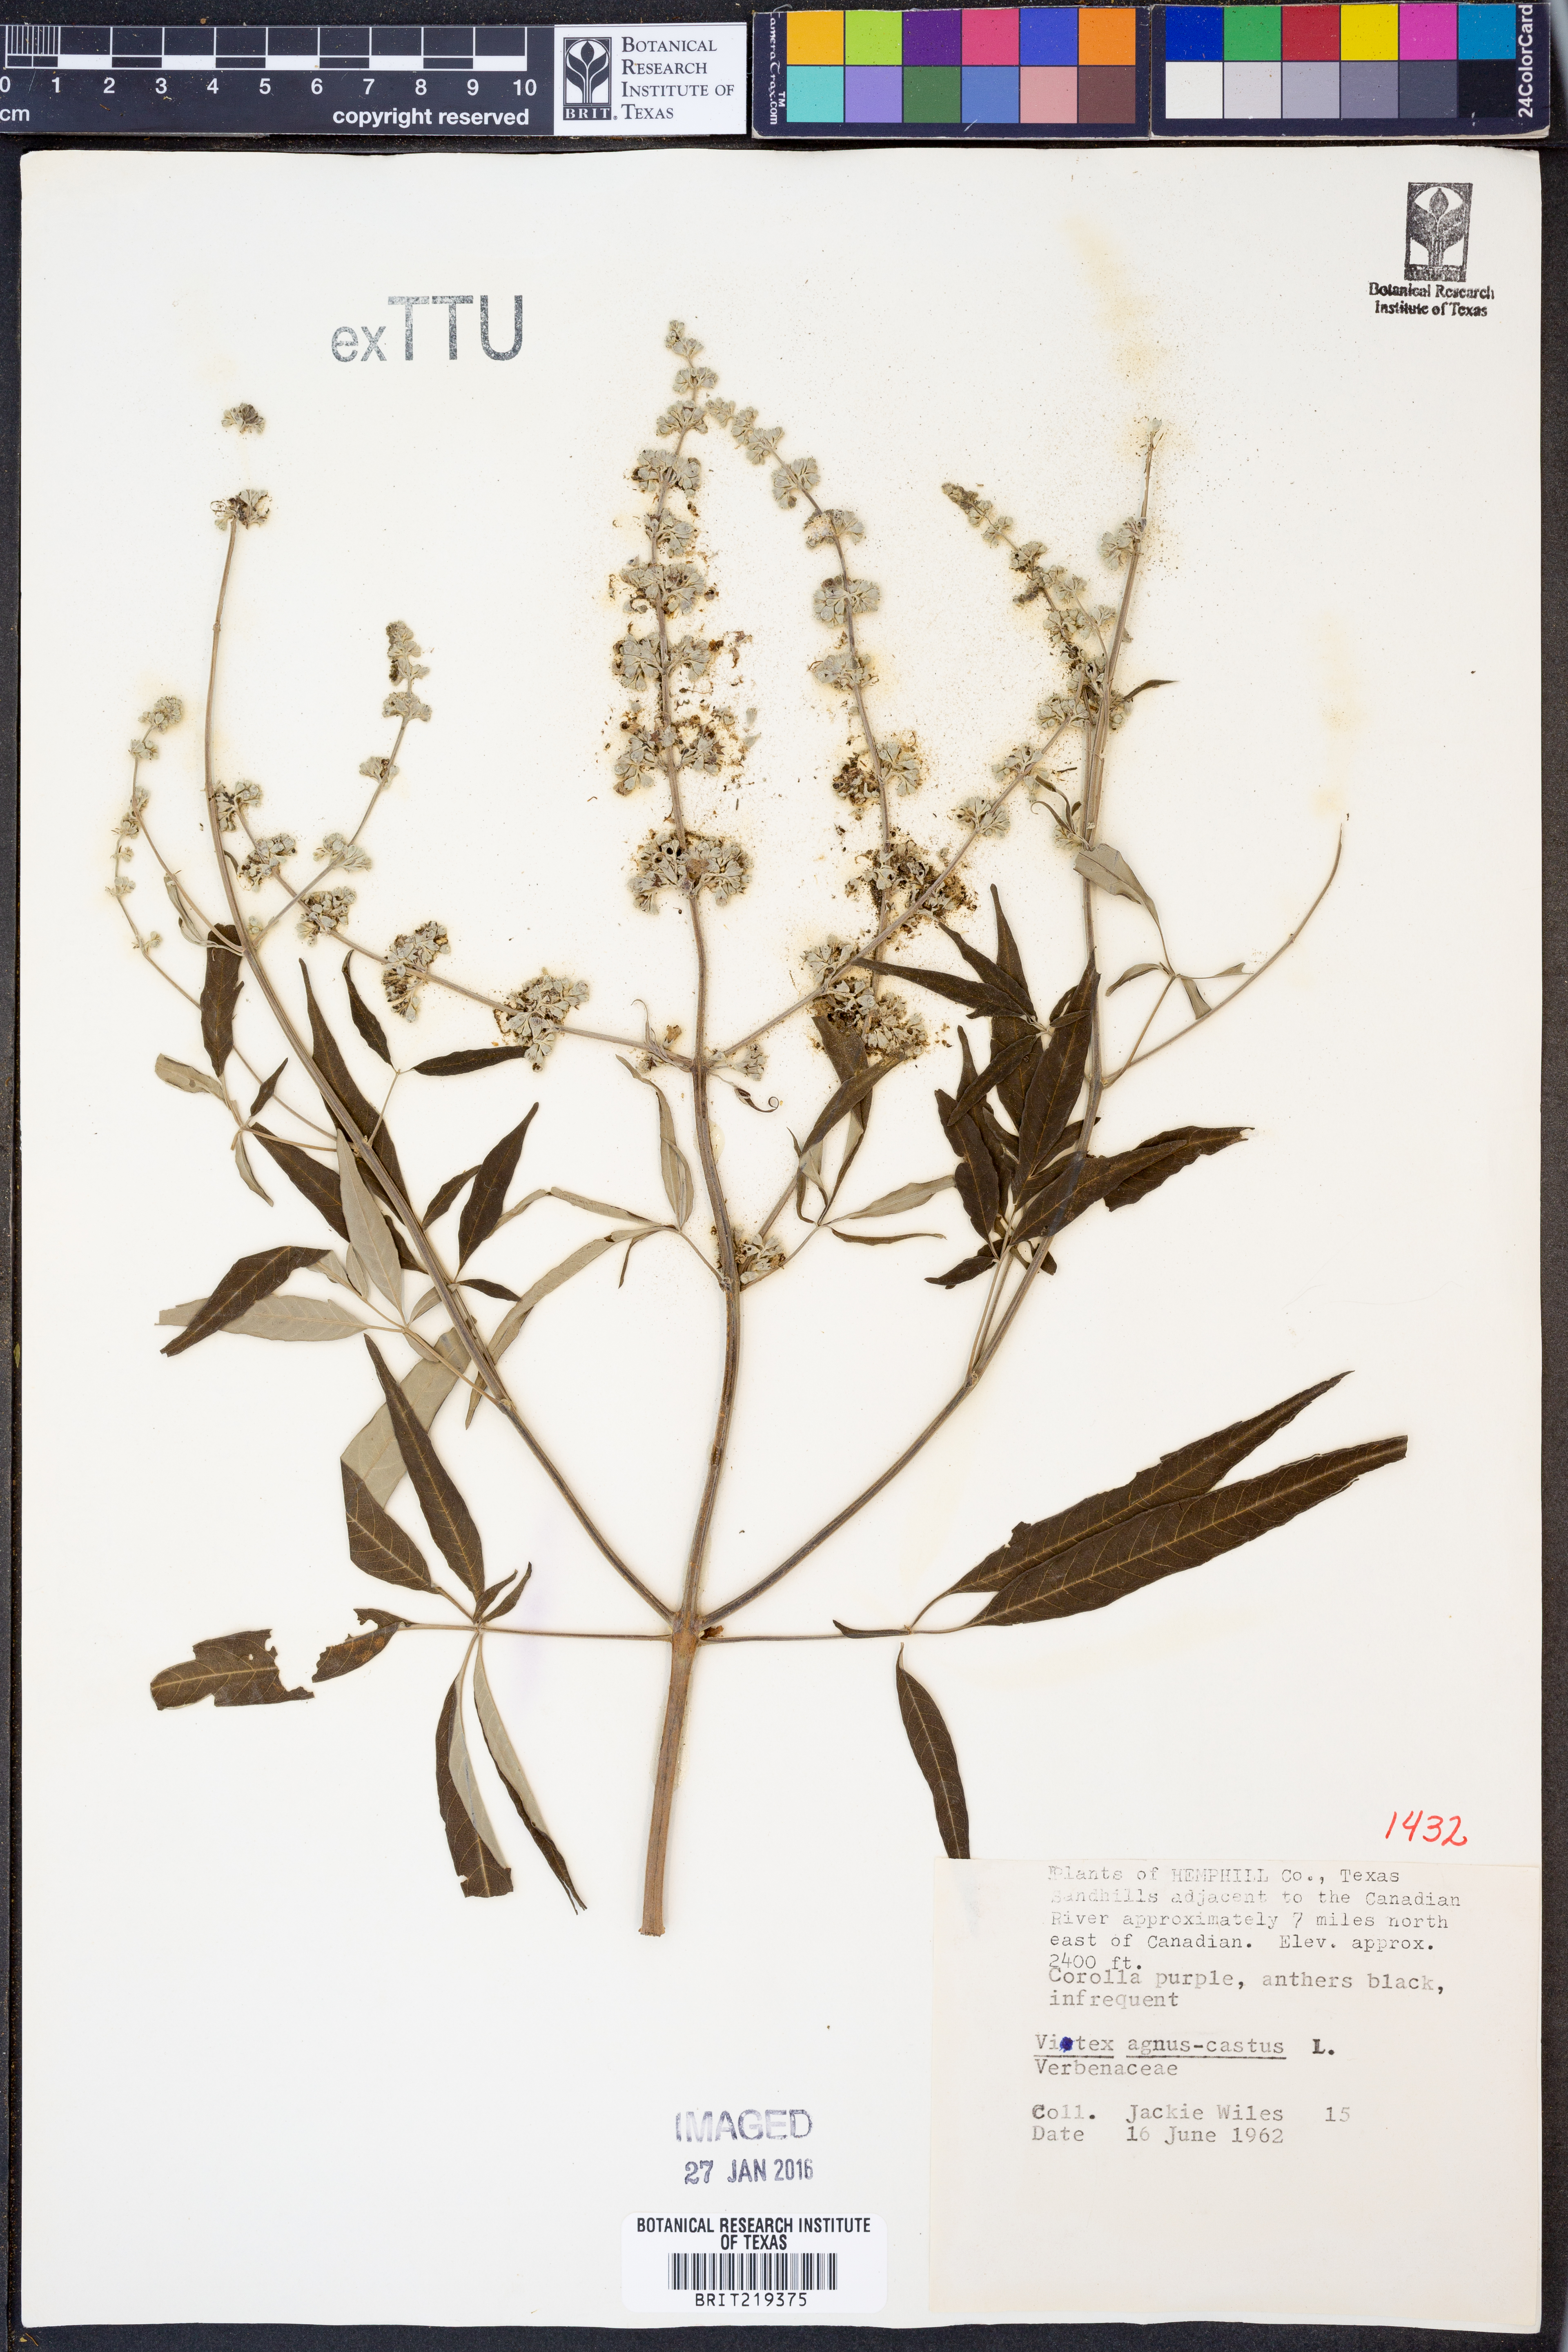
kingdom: Plantae
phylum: Tracheophyta
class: Magnoliopsida
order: Lamiales
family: Lamiaceae
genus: Vitex
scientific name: Vitex agnus-castus
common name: Chasteberry
